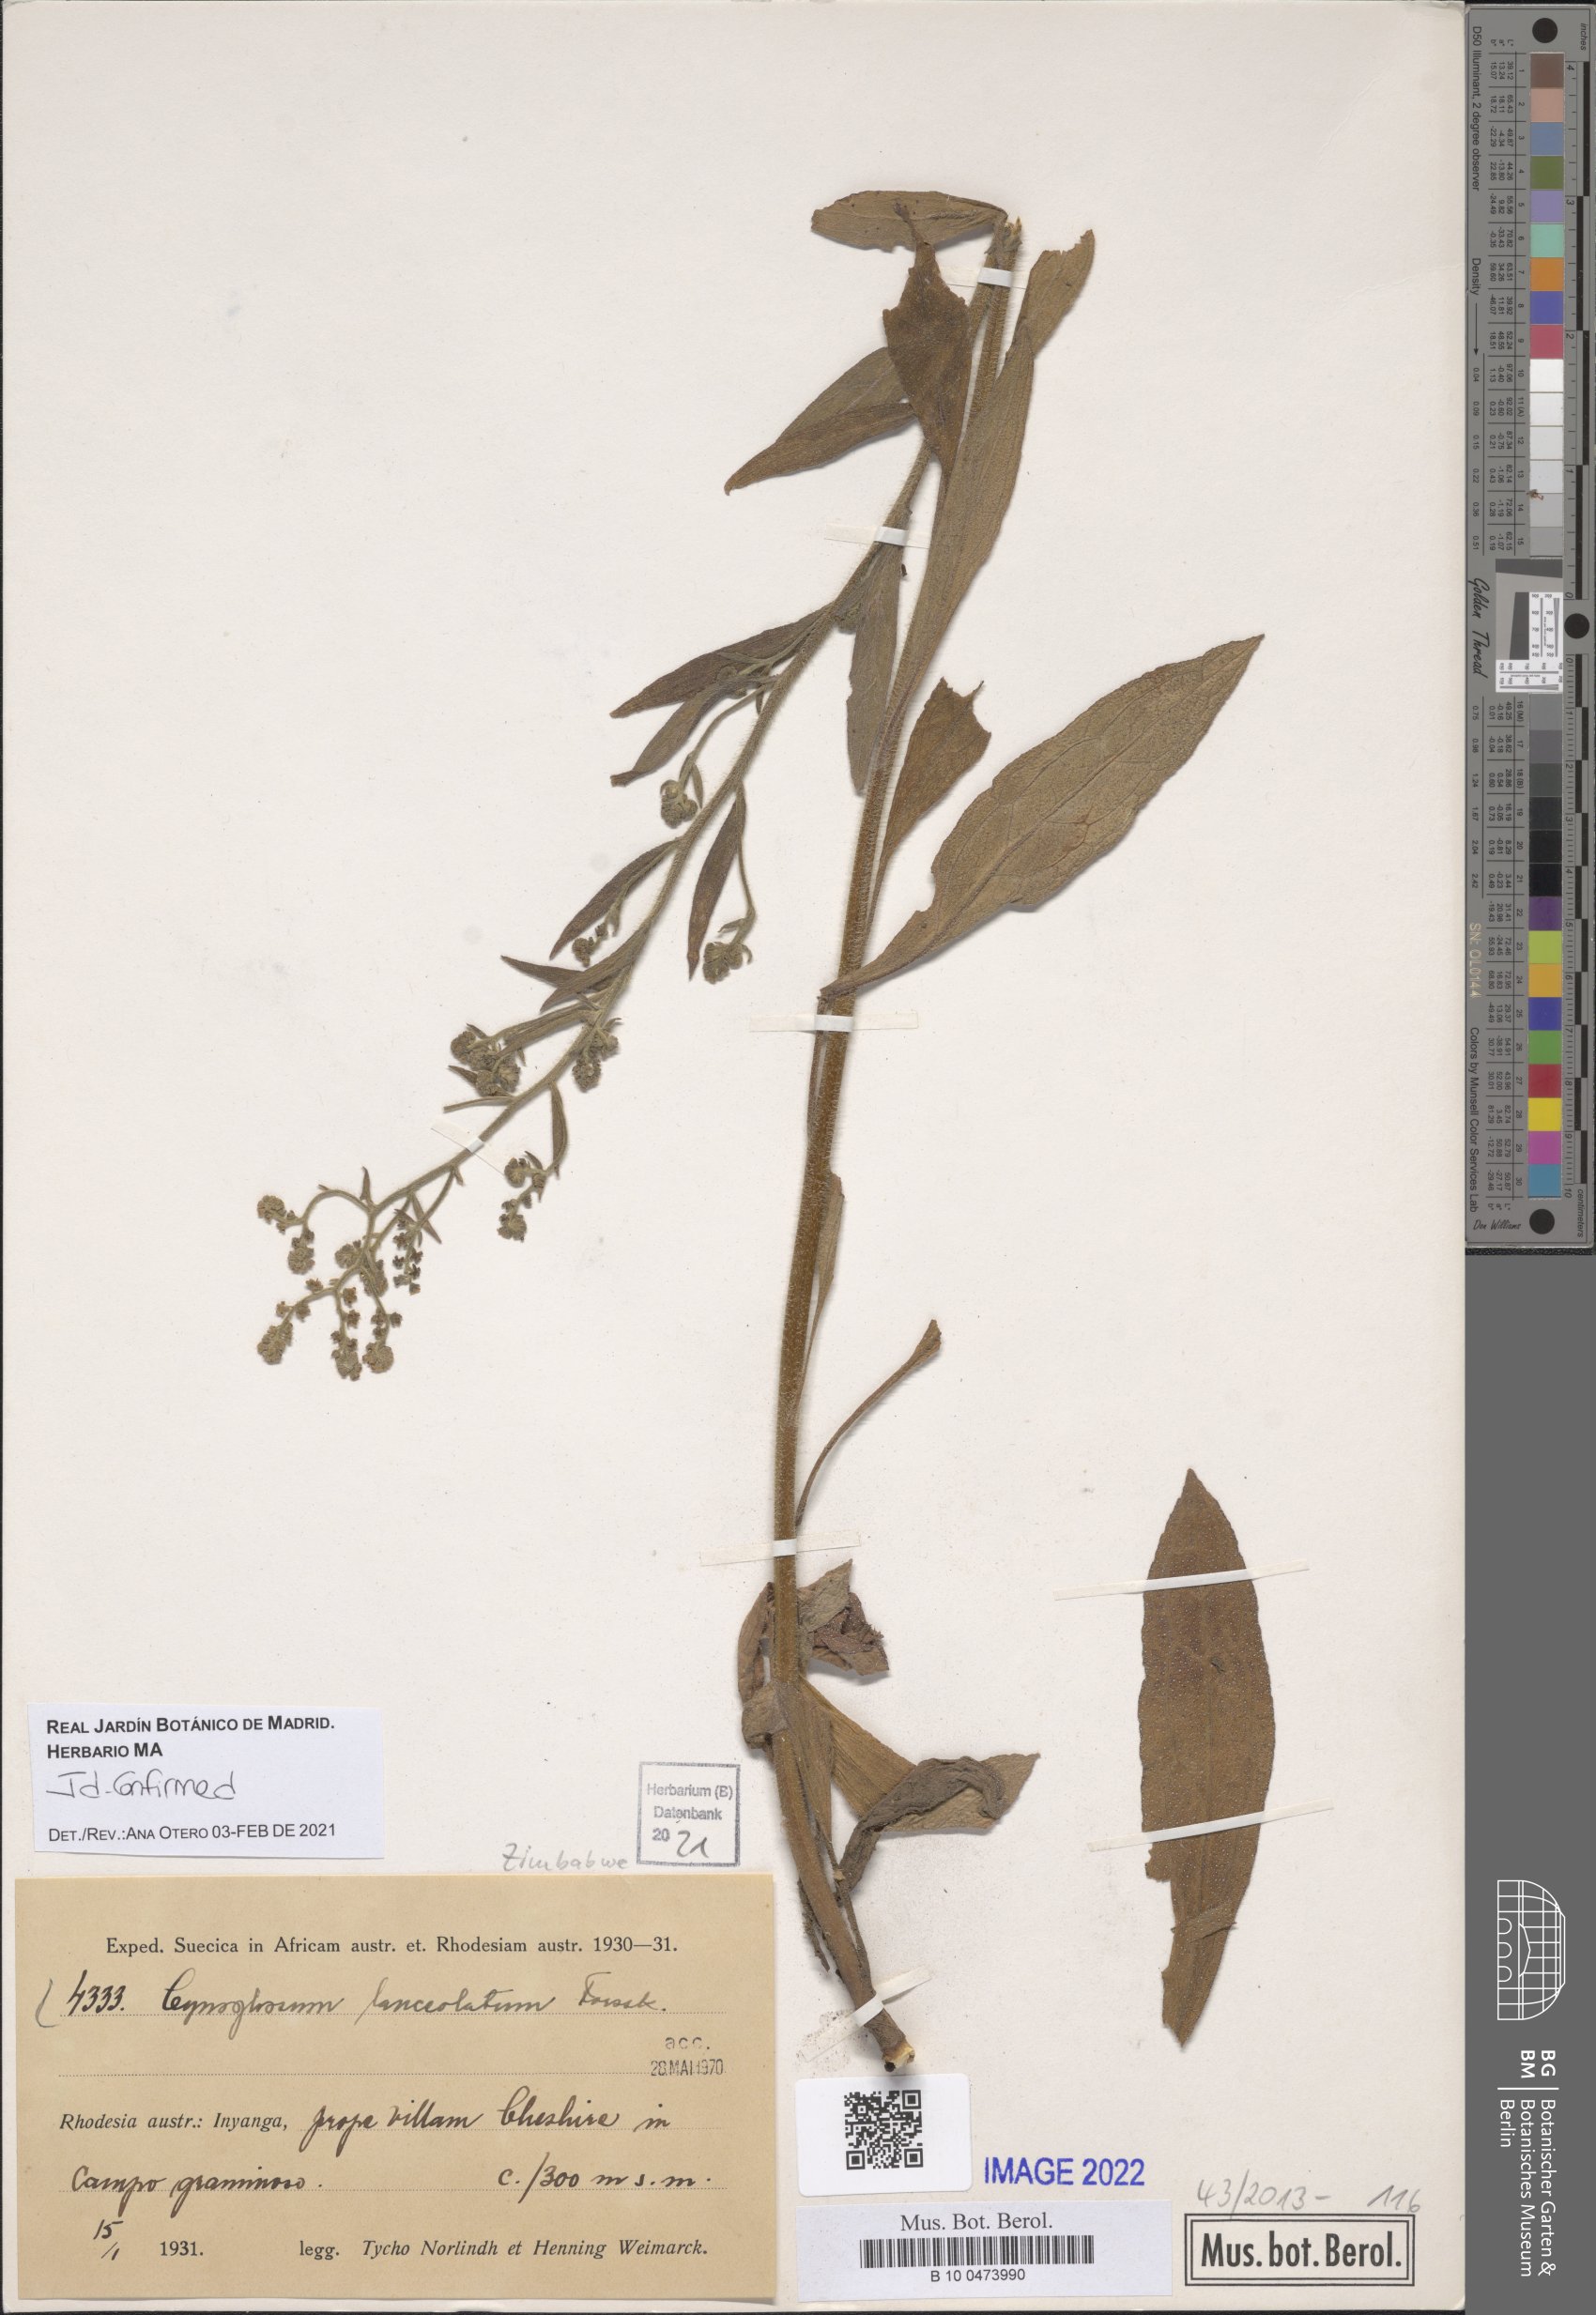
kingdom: Plantae
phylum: Tracheophyta
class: Magnoliopsida
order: Boraginales
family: Boraginaceae
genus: Paracynoglossum
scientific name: Paracynoglossum lanceolatum
